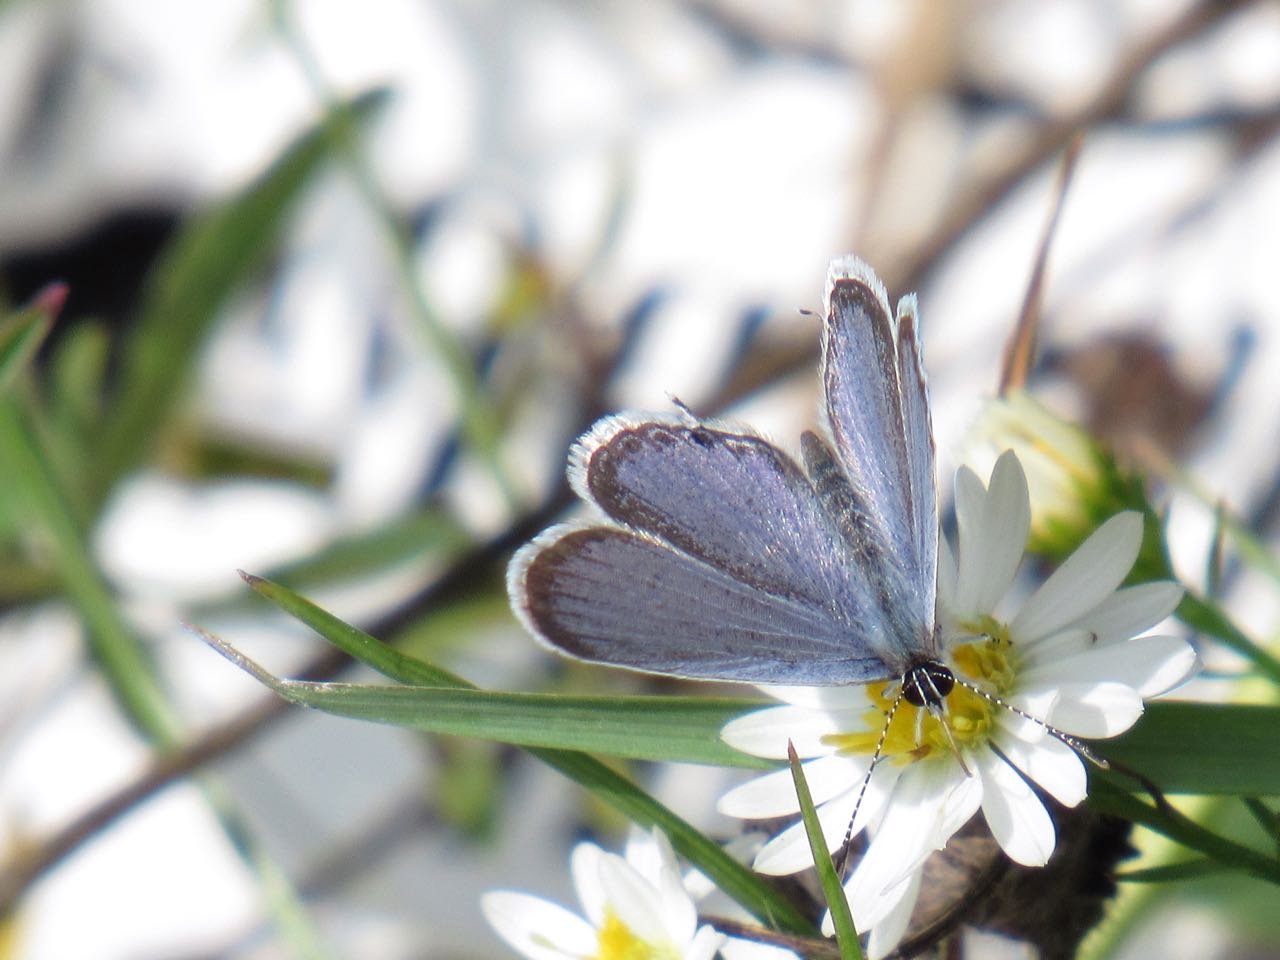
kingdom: Animalia
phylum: Arthropoda
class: Insecta
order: Lepidoptera
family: Lycaenidae
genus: Elkalyce
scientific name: Elkalyce comyntas
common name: Eastern Tailed-Blue
